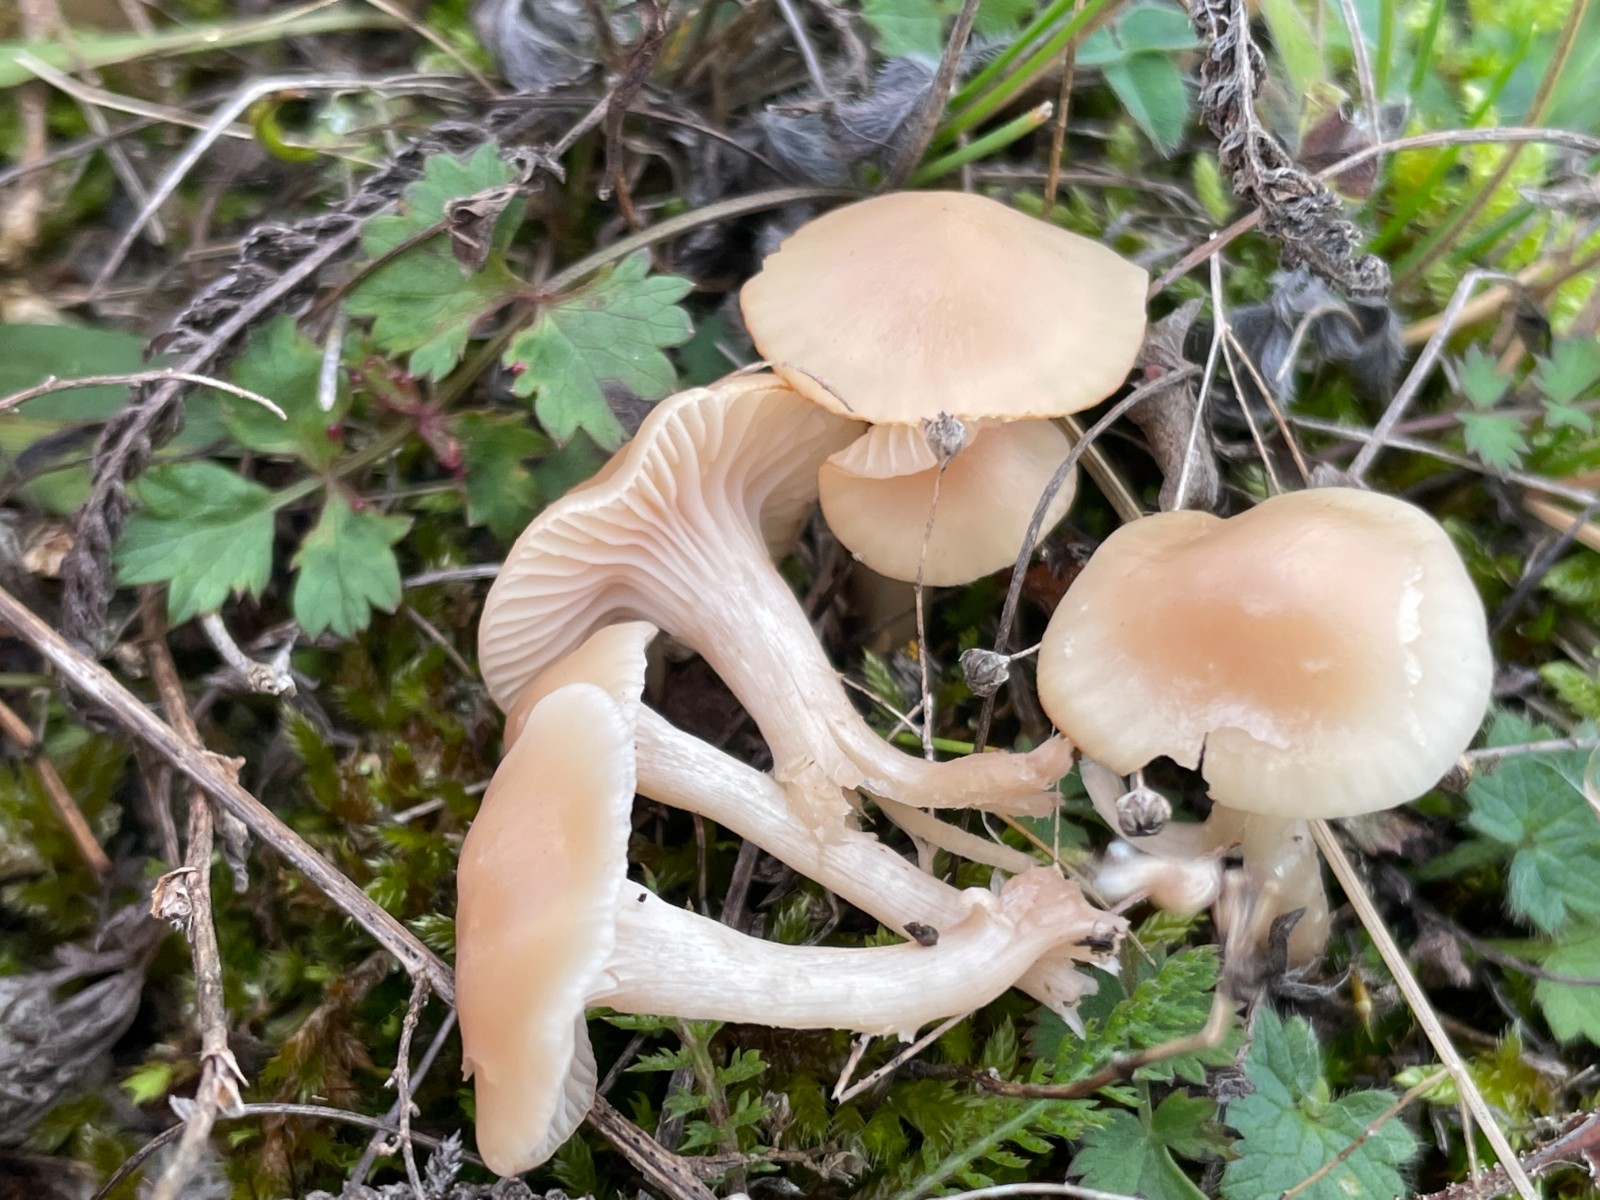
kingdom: Fungi
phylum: Basidiomycota
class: Agaricomycetes
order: Agaricales
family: Hygrophoraceae
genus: Cuphophyllus
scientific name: Cuphophyllus virgineus
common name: isabella-vokshat
